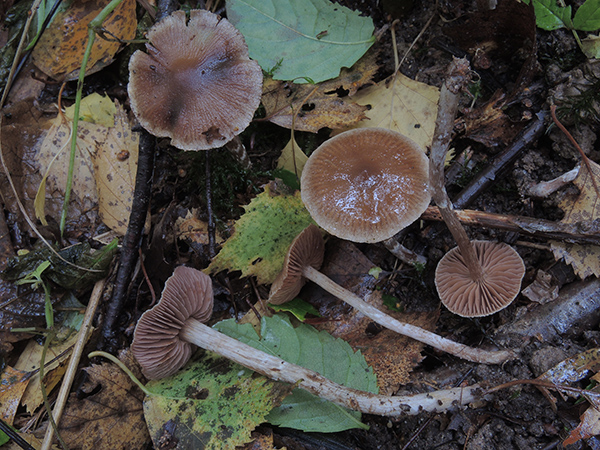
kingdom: Fungi
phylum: Basidiomycota
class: Agaricomycetes
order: Agaricales
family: Cortinariaceae
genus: Cortinarius
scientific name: Cortinarius
